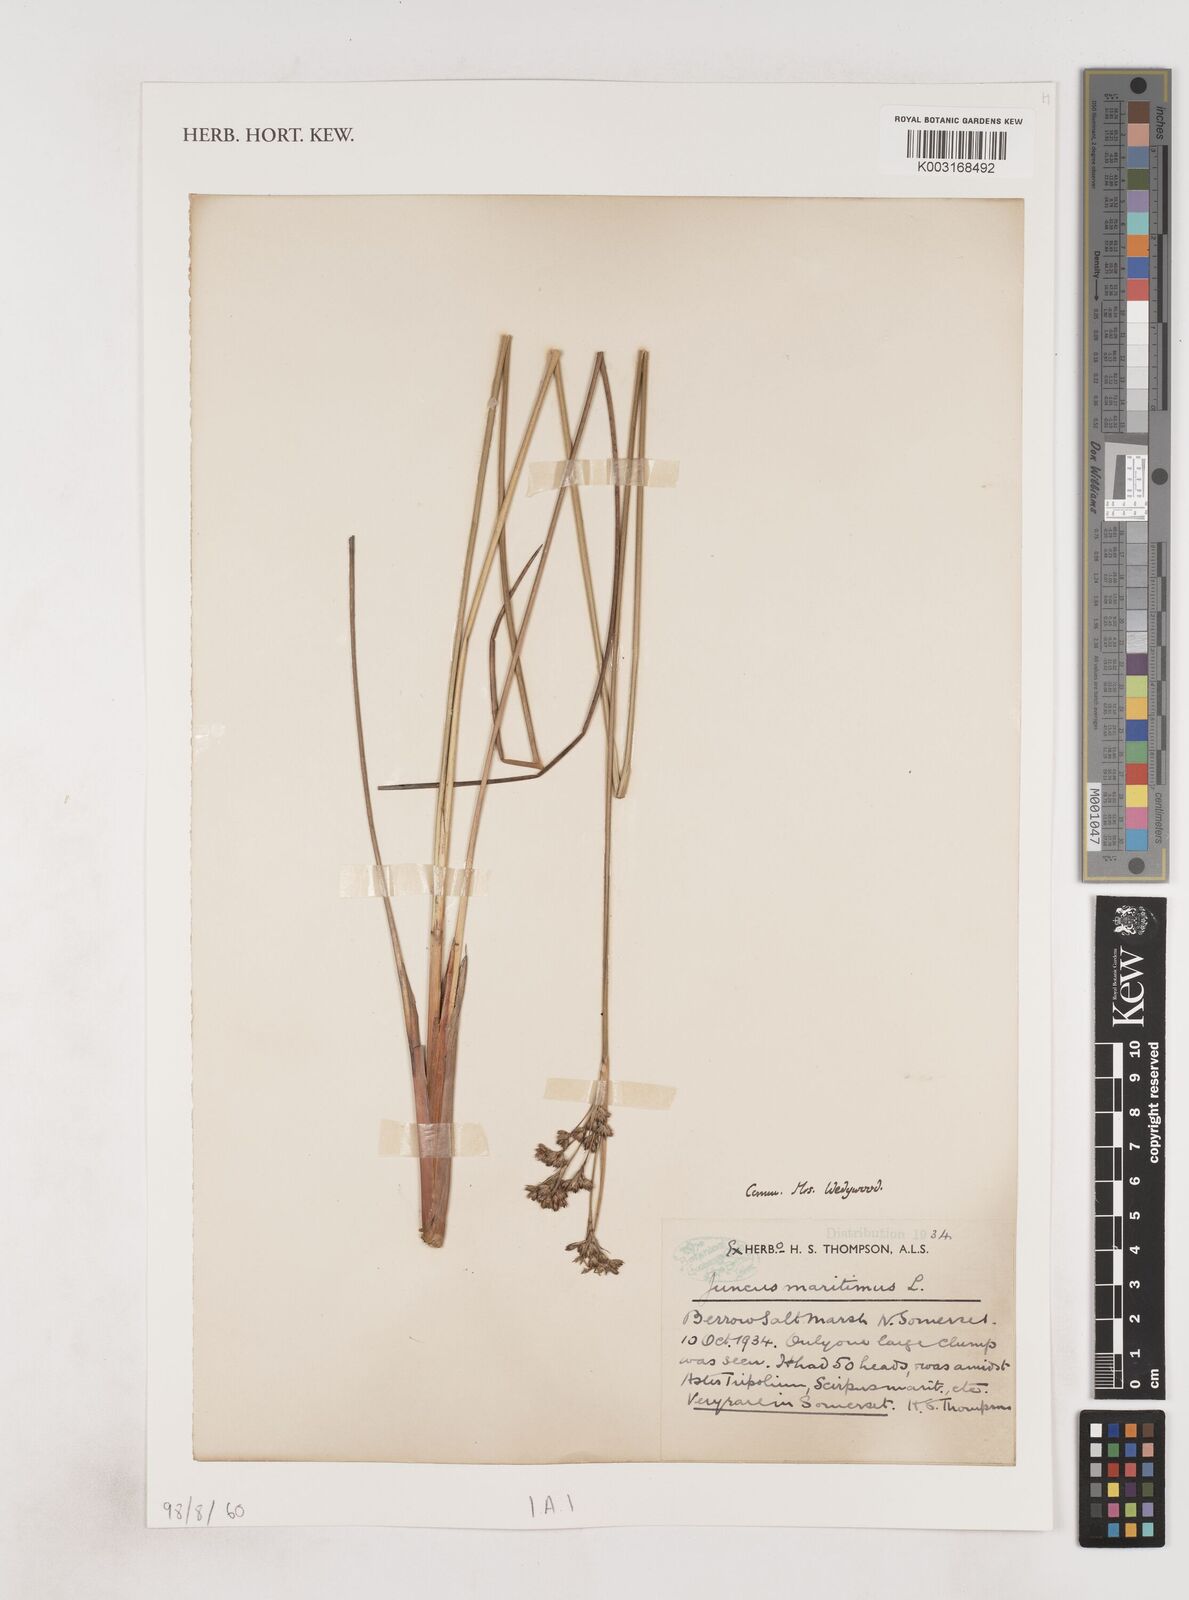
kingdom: Plantae
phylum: Tracheophyta
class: Liliopsida
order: Poales
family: Juncaceae
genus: Juncus
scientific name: Juncus maritimus
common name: Sea rush
